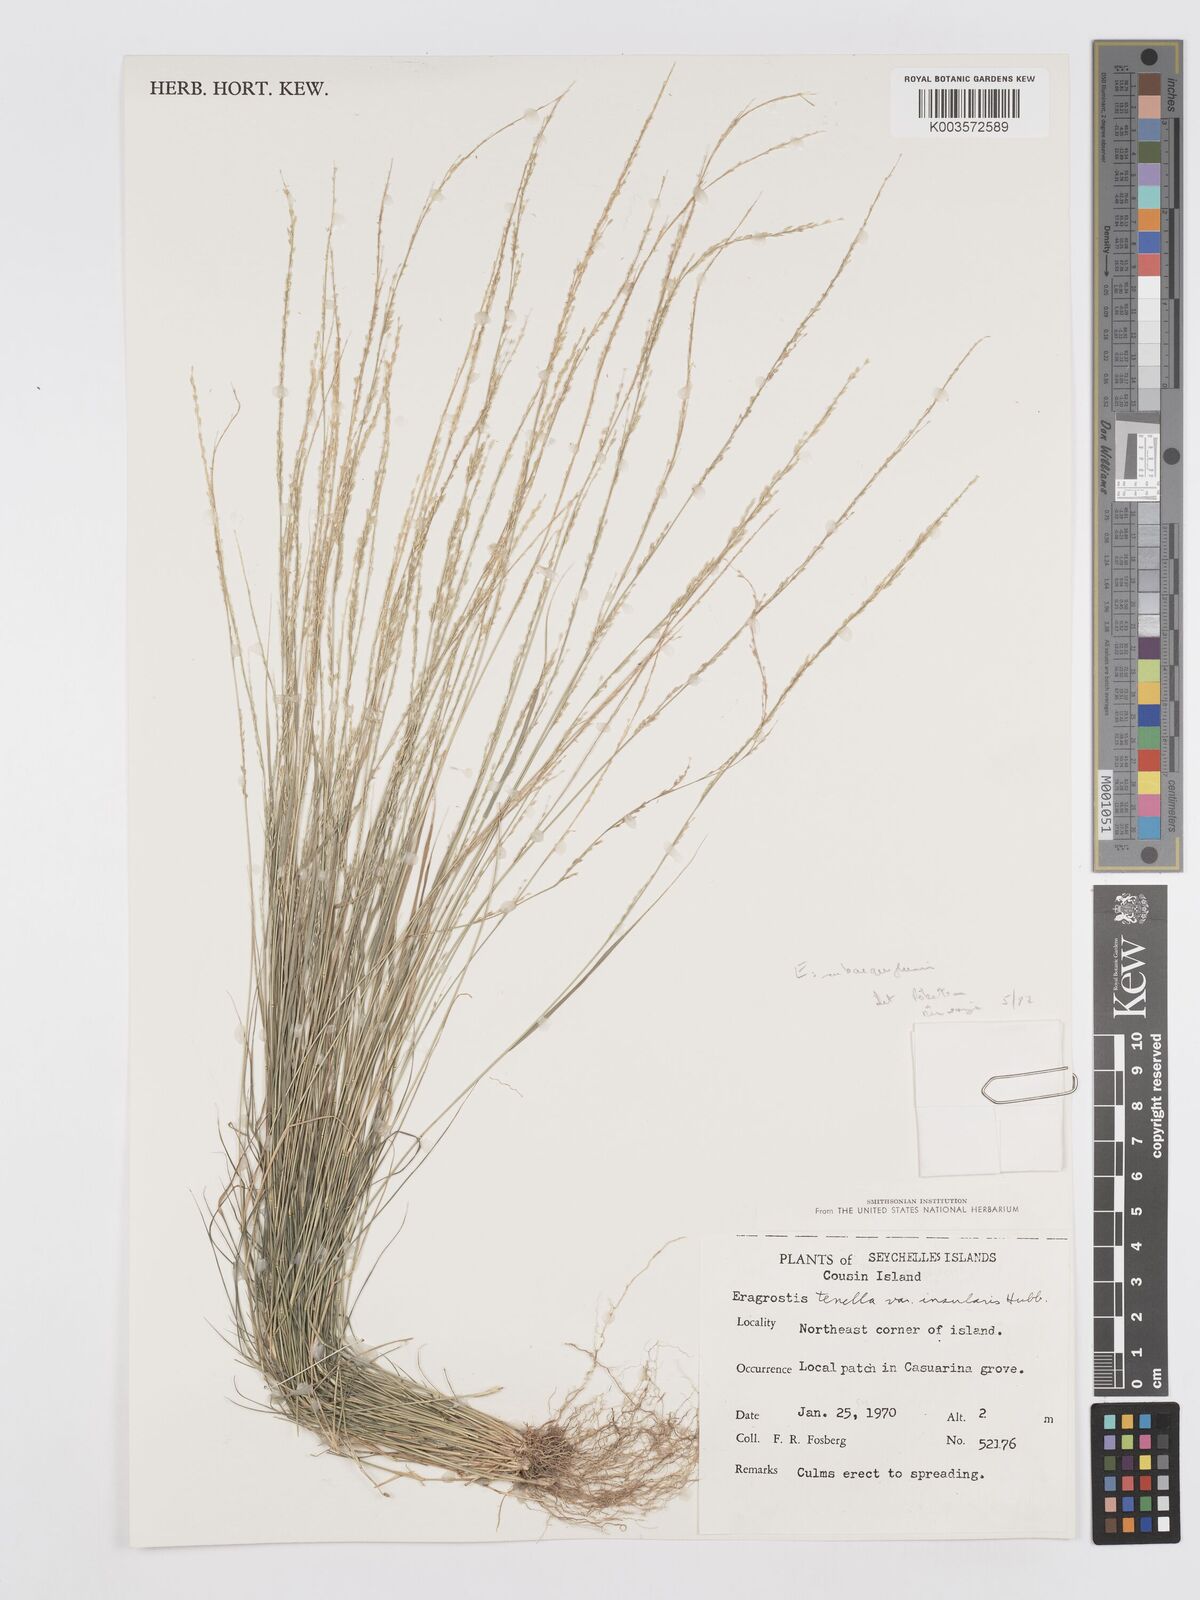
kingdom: Plantae
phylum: Tracheophyta
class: Liliopsida
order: Poales
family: Poaceae
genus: Eragrostis
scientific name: Eragrostis subaequiglumis
